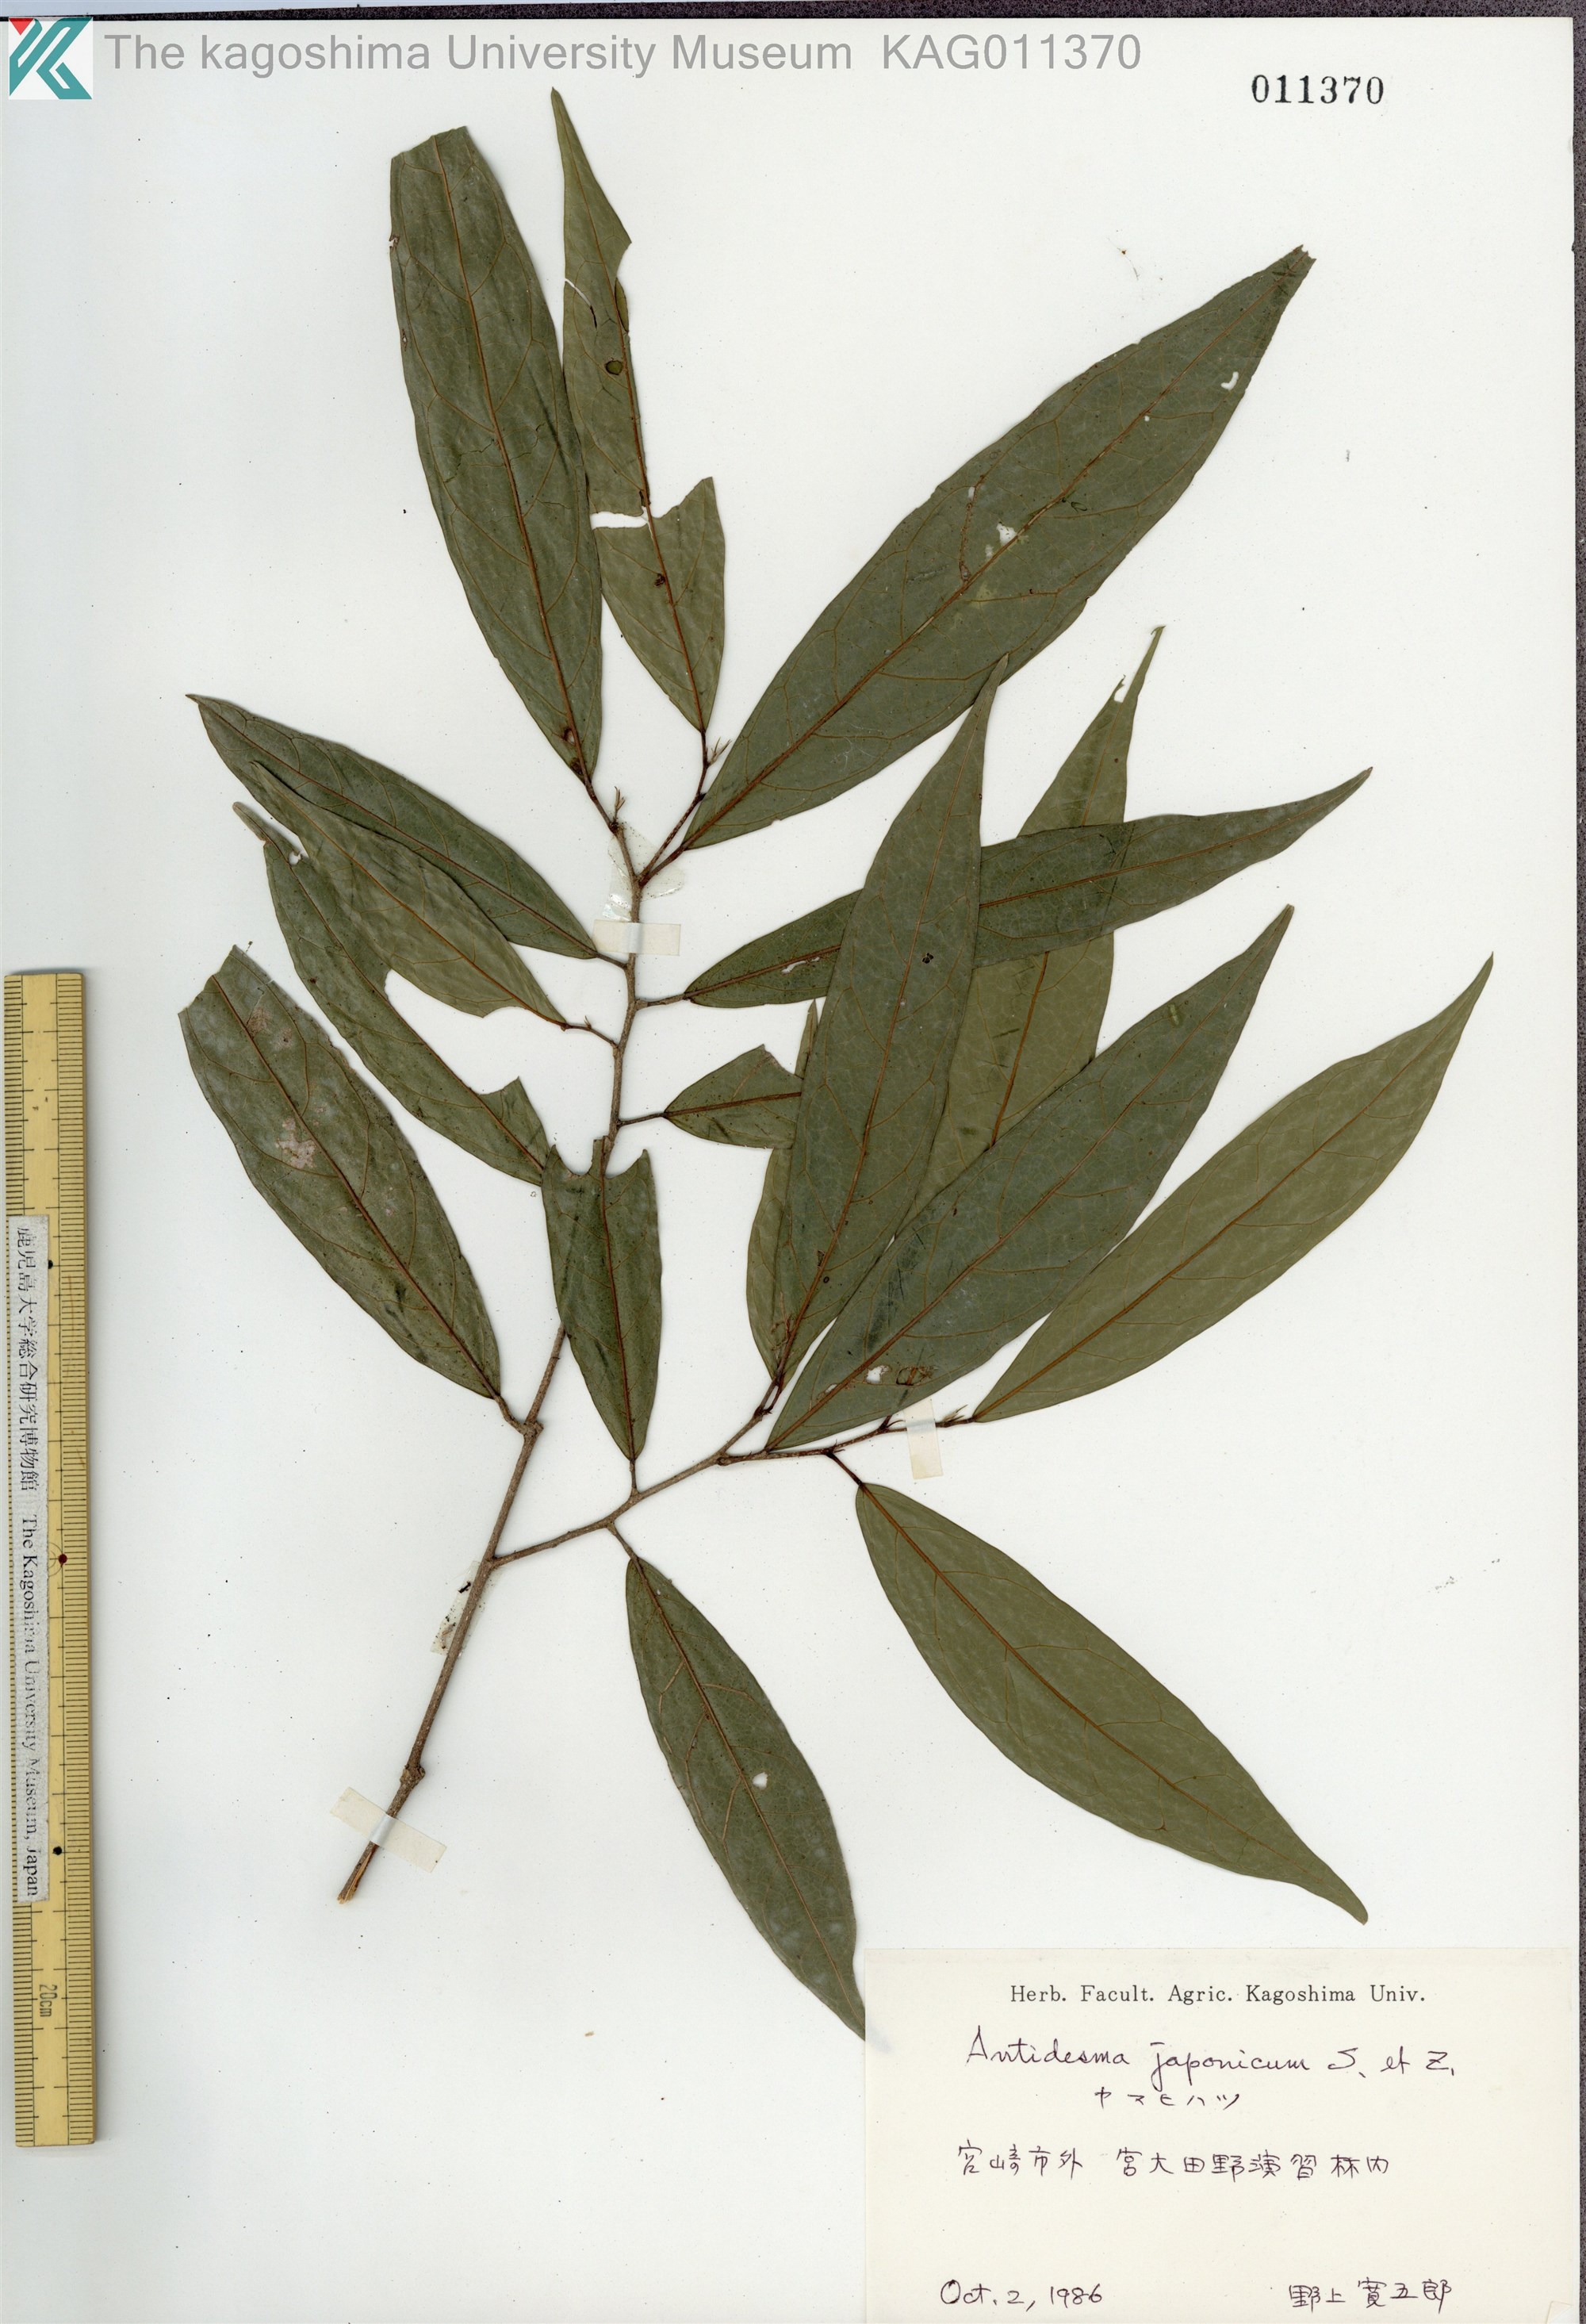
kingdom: Plantae
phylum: Tracheophyta
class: Magnoliopsida
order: Malpighiales
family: Phyllanthaceae
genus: Antidesma
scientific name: Antidesma japonicum
